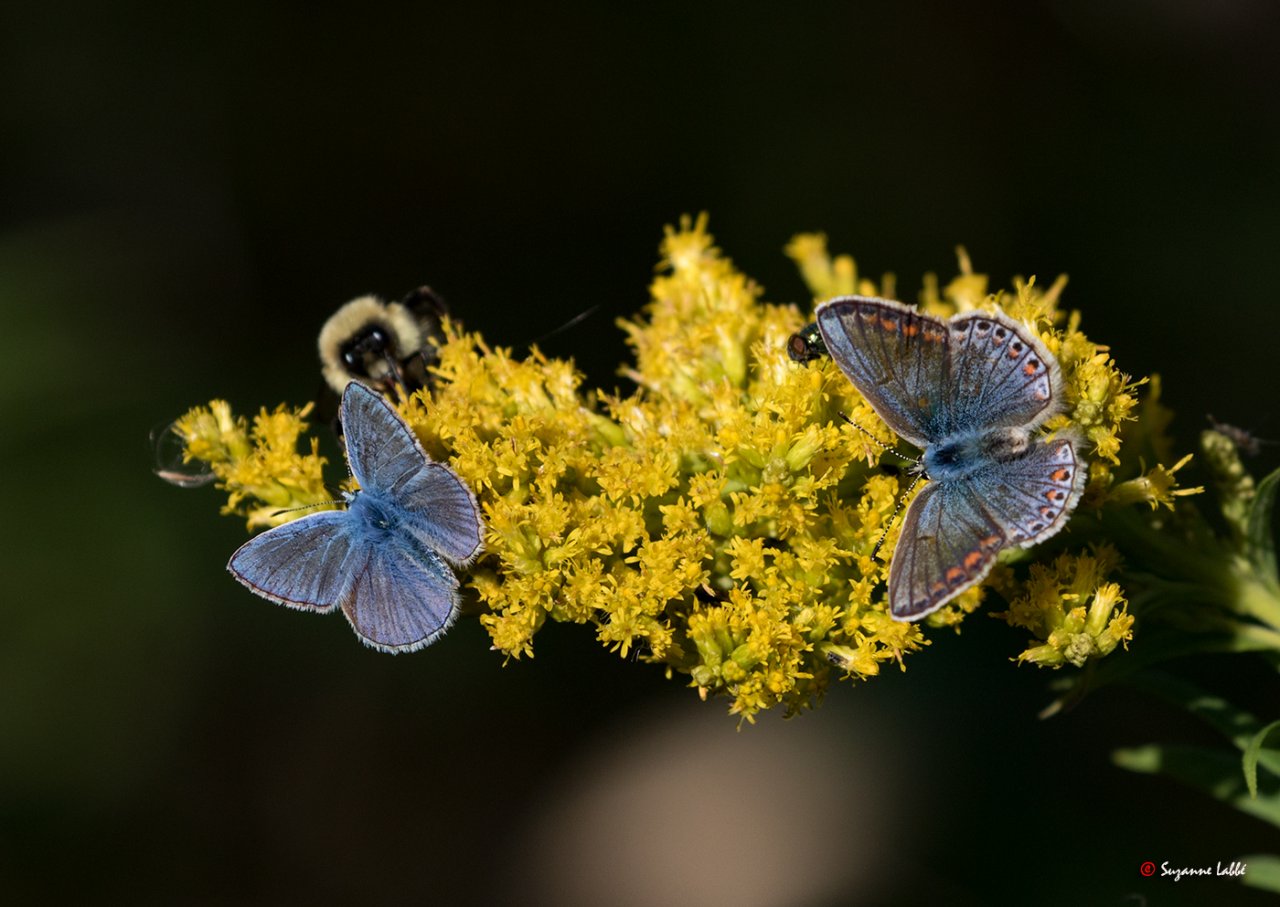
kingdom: Animalia
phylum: Arthropoda
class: Insecta
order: Lepidoptera
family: Lycaenidae
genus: Polyommatus
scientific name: Polyommatus icarus
